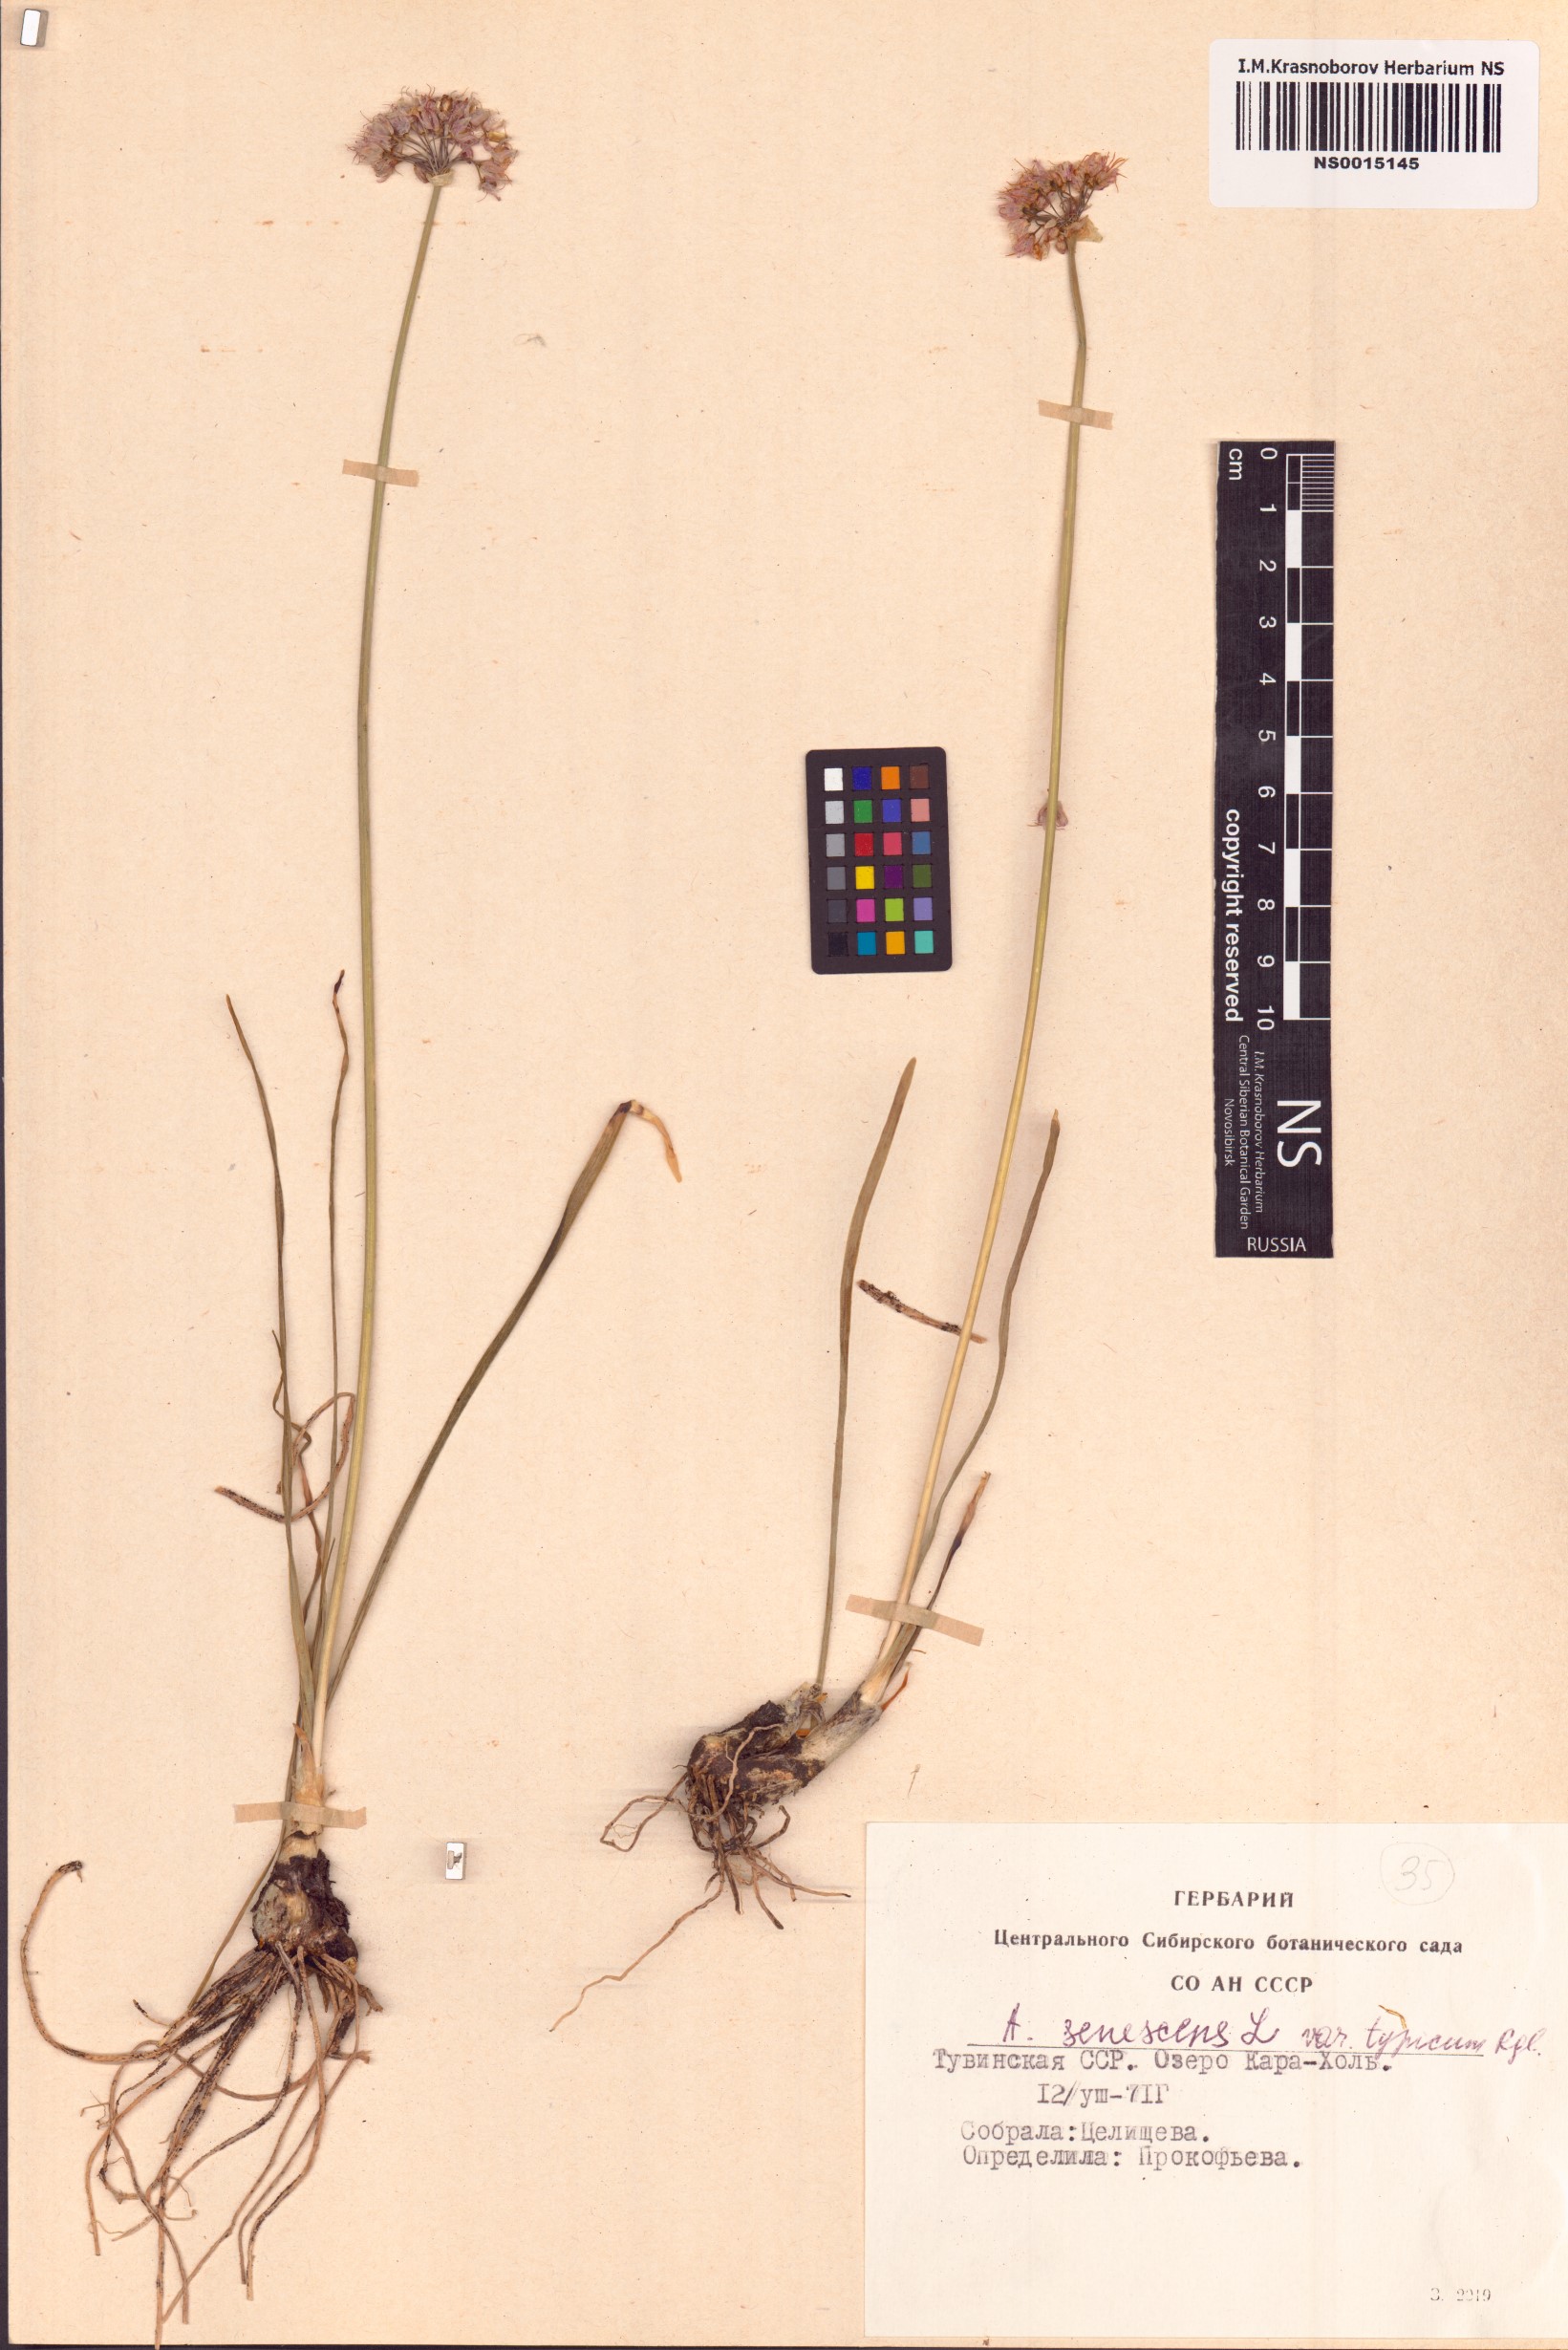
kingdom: Plantae
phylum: Tracheophyta
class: Liliopsida
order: Asparagales
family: Amaryllidaceae
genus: Allium
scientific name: Allium senescens
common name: German garlic
